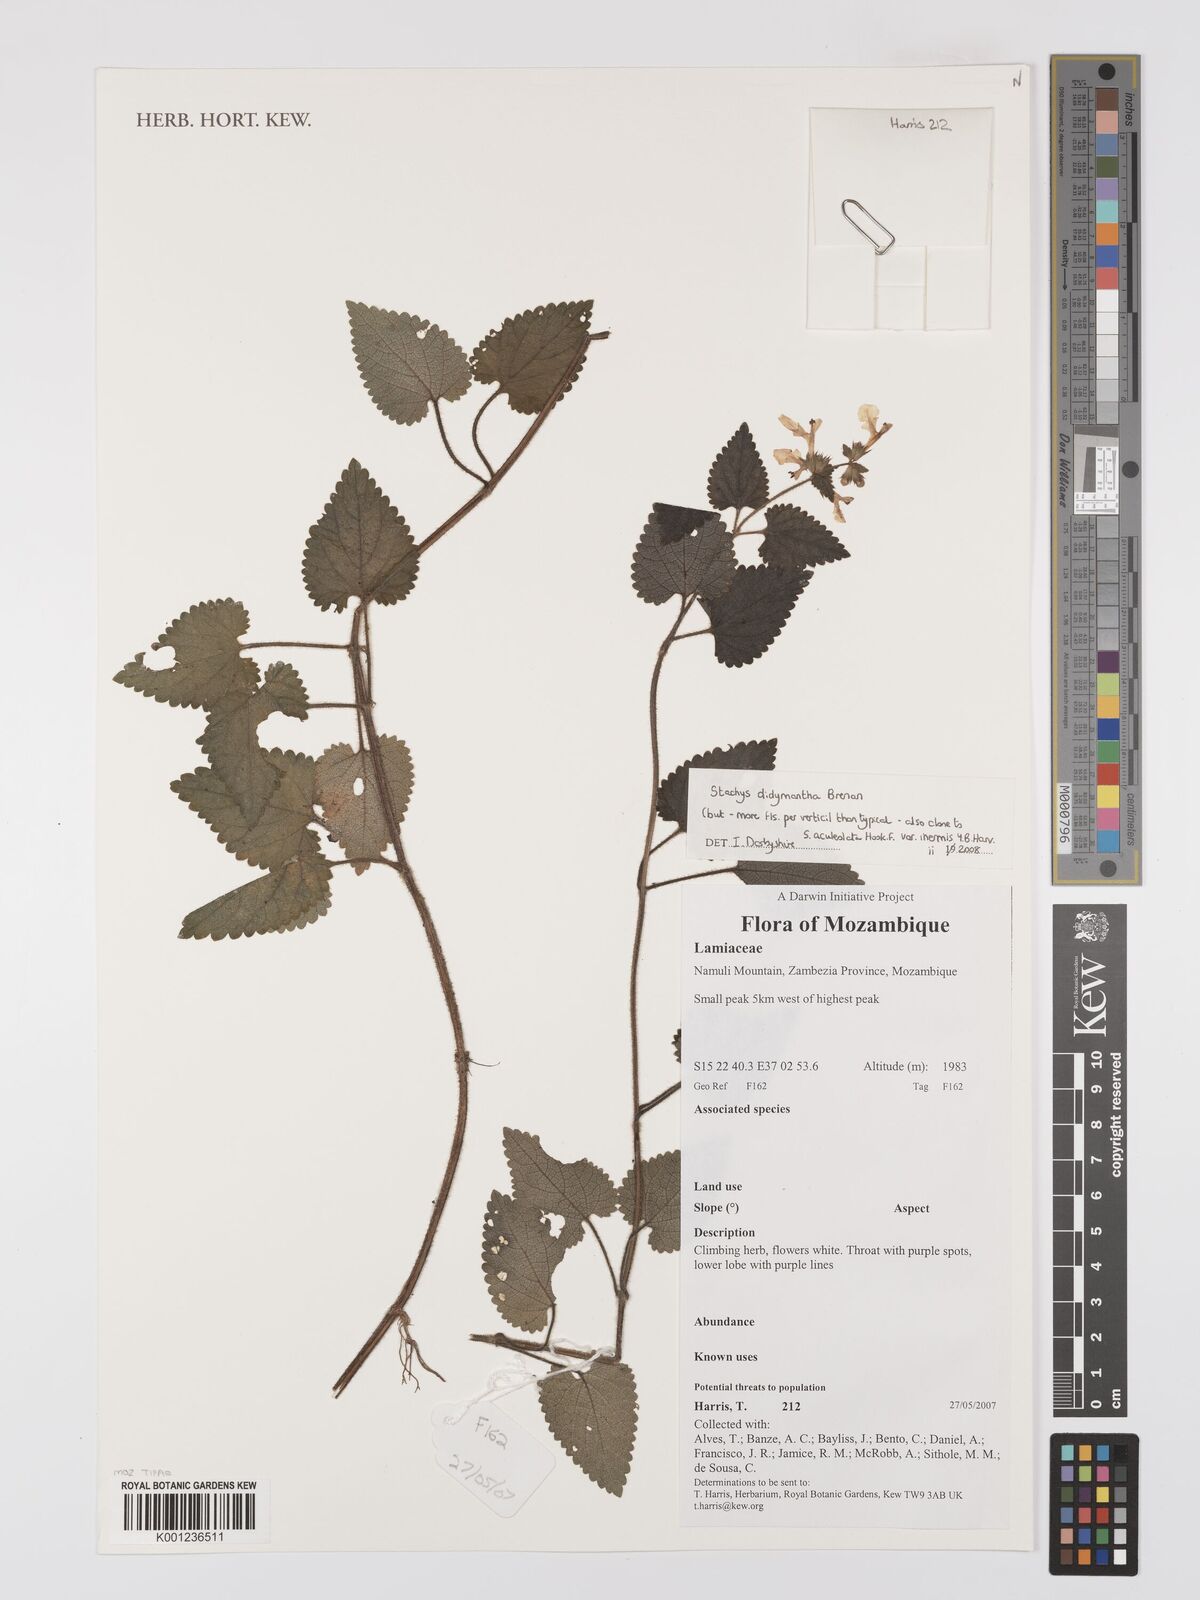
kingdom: Plantae
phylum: Tracheophyta
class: Magnoliopsida
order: Lamiales
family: Lamiaceae
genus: Stachys
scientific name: Stachys didymantha
